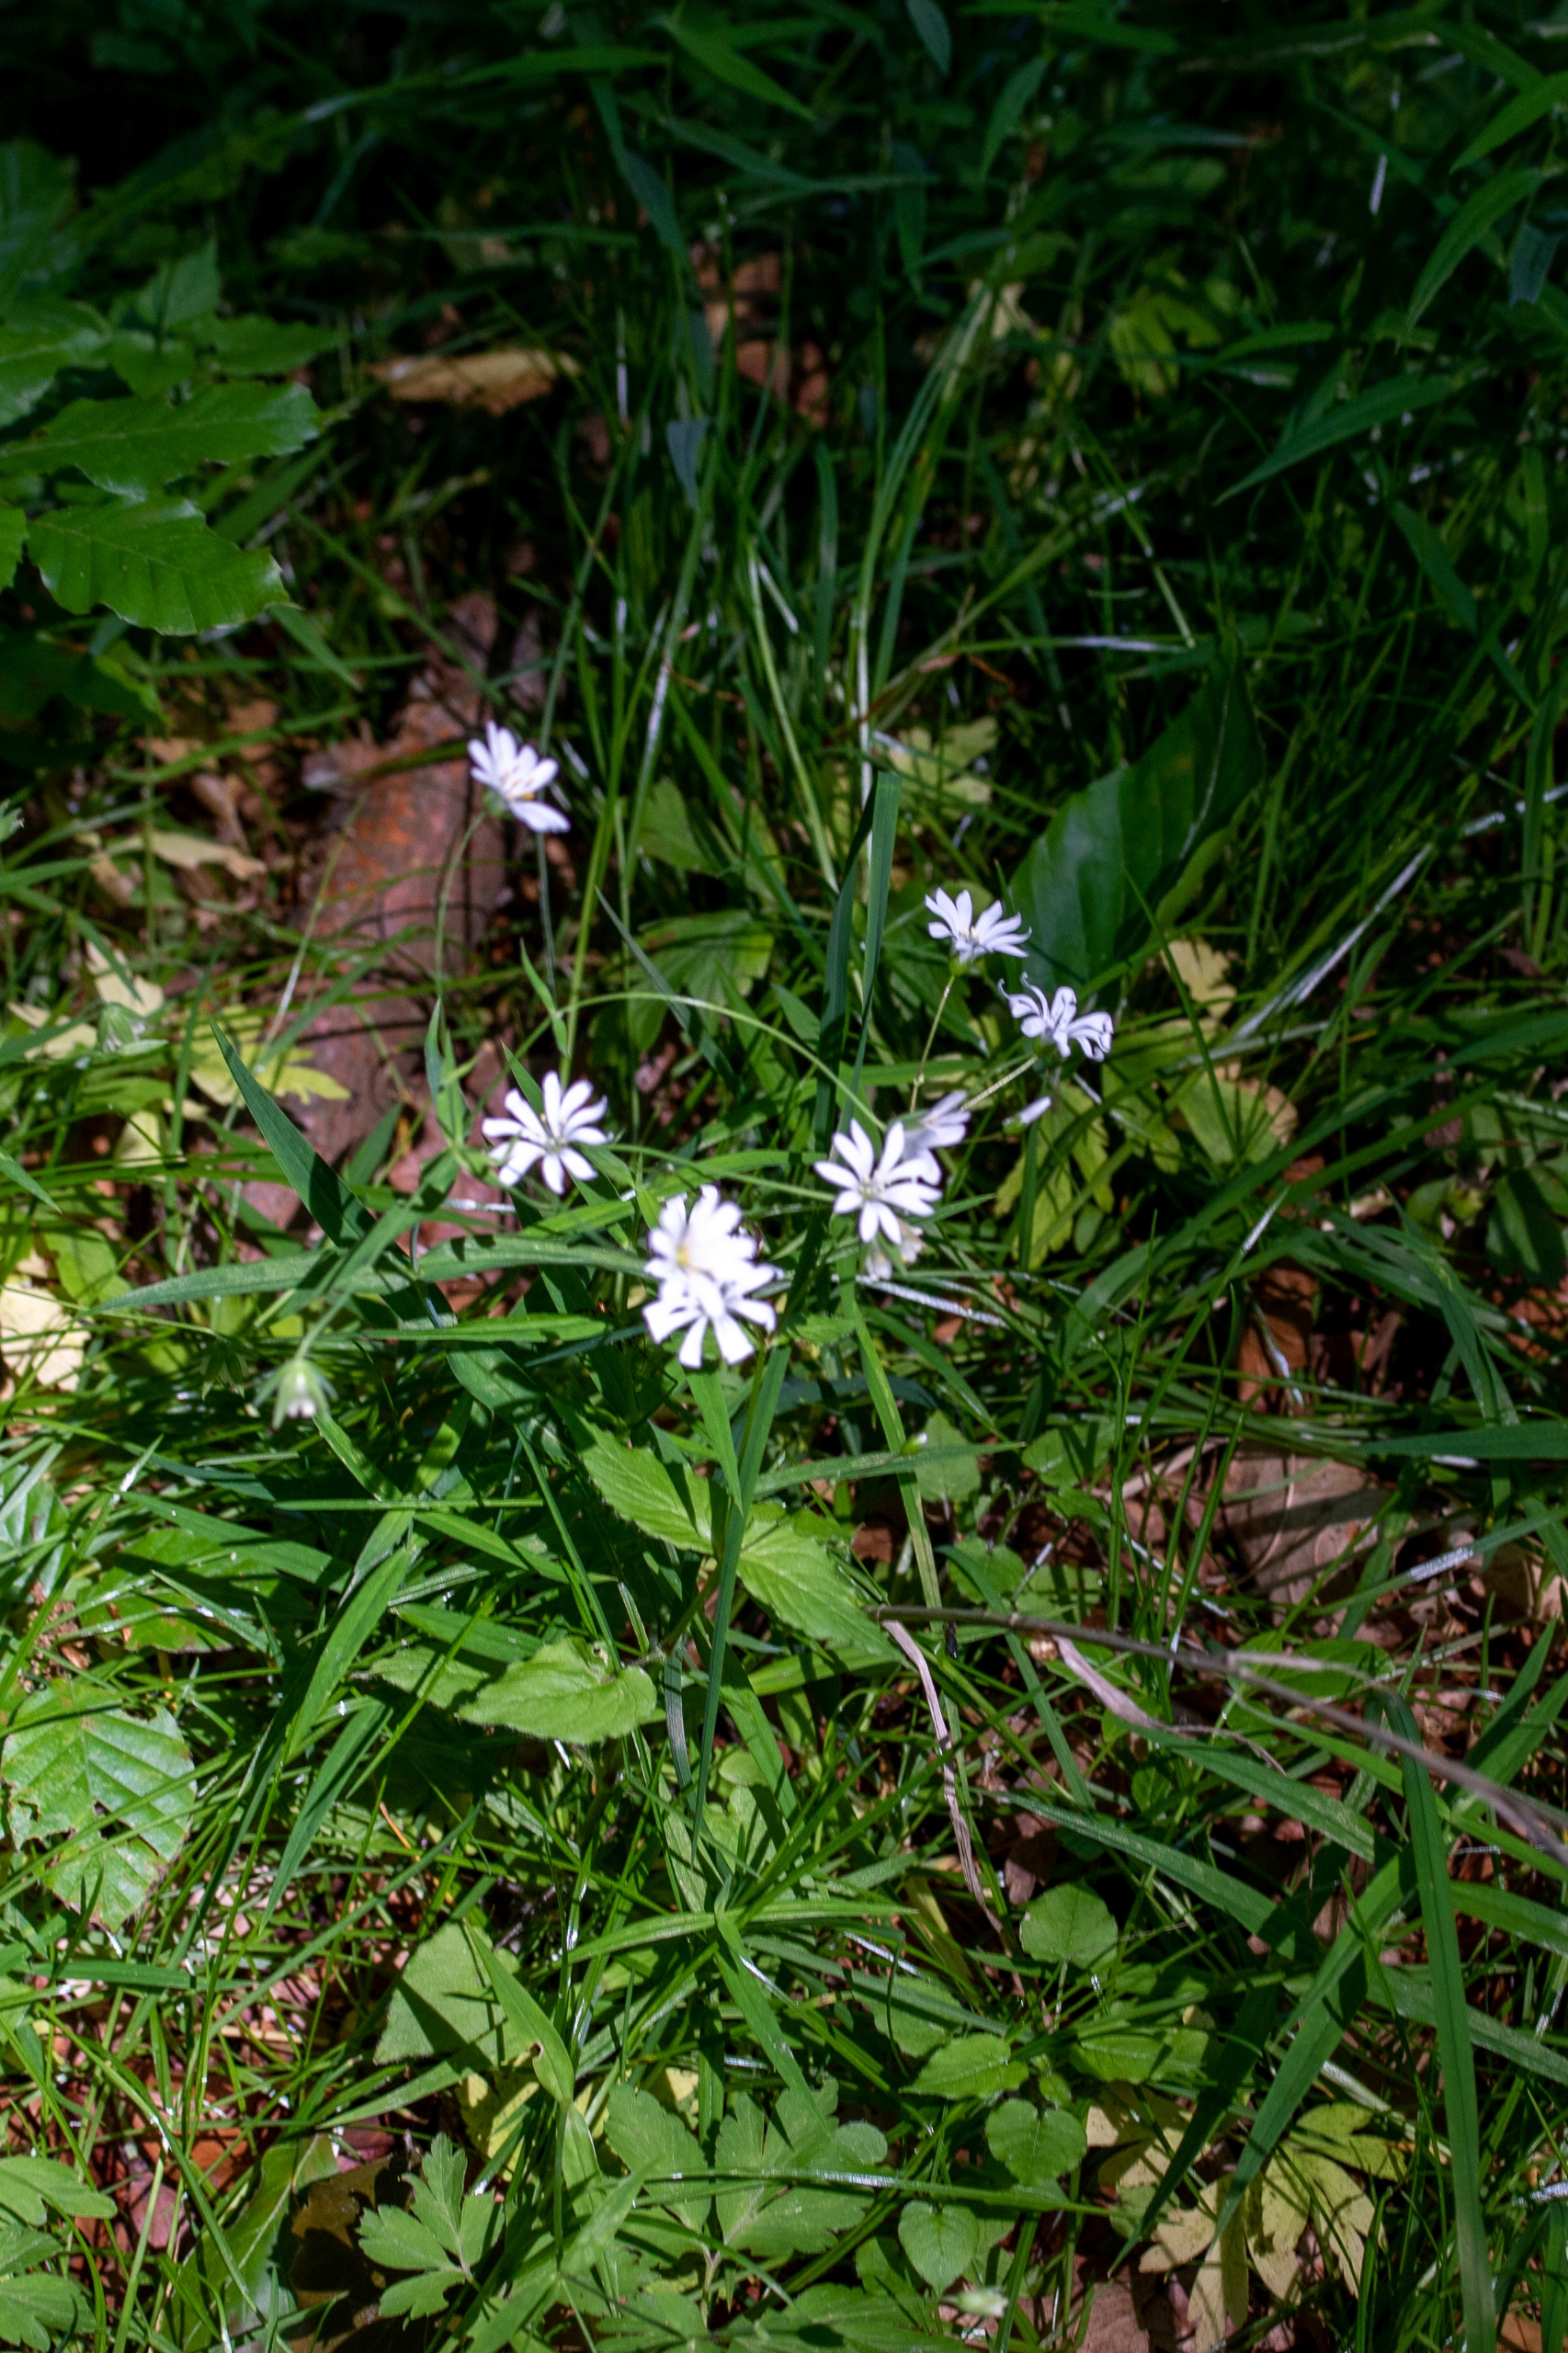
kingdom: Plantae
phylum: Tracheophyta
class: Magnoliopsida
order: Caryophyllales
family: Caryophyllaceae
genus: Stellaria
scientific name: Stellaria nemorum
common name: Lund-fladstjerne
